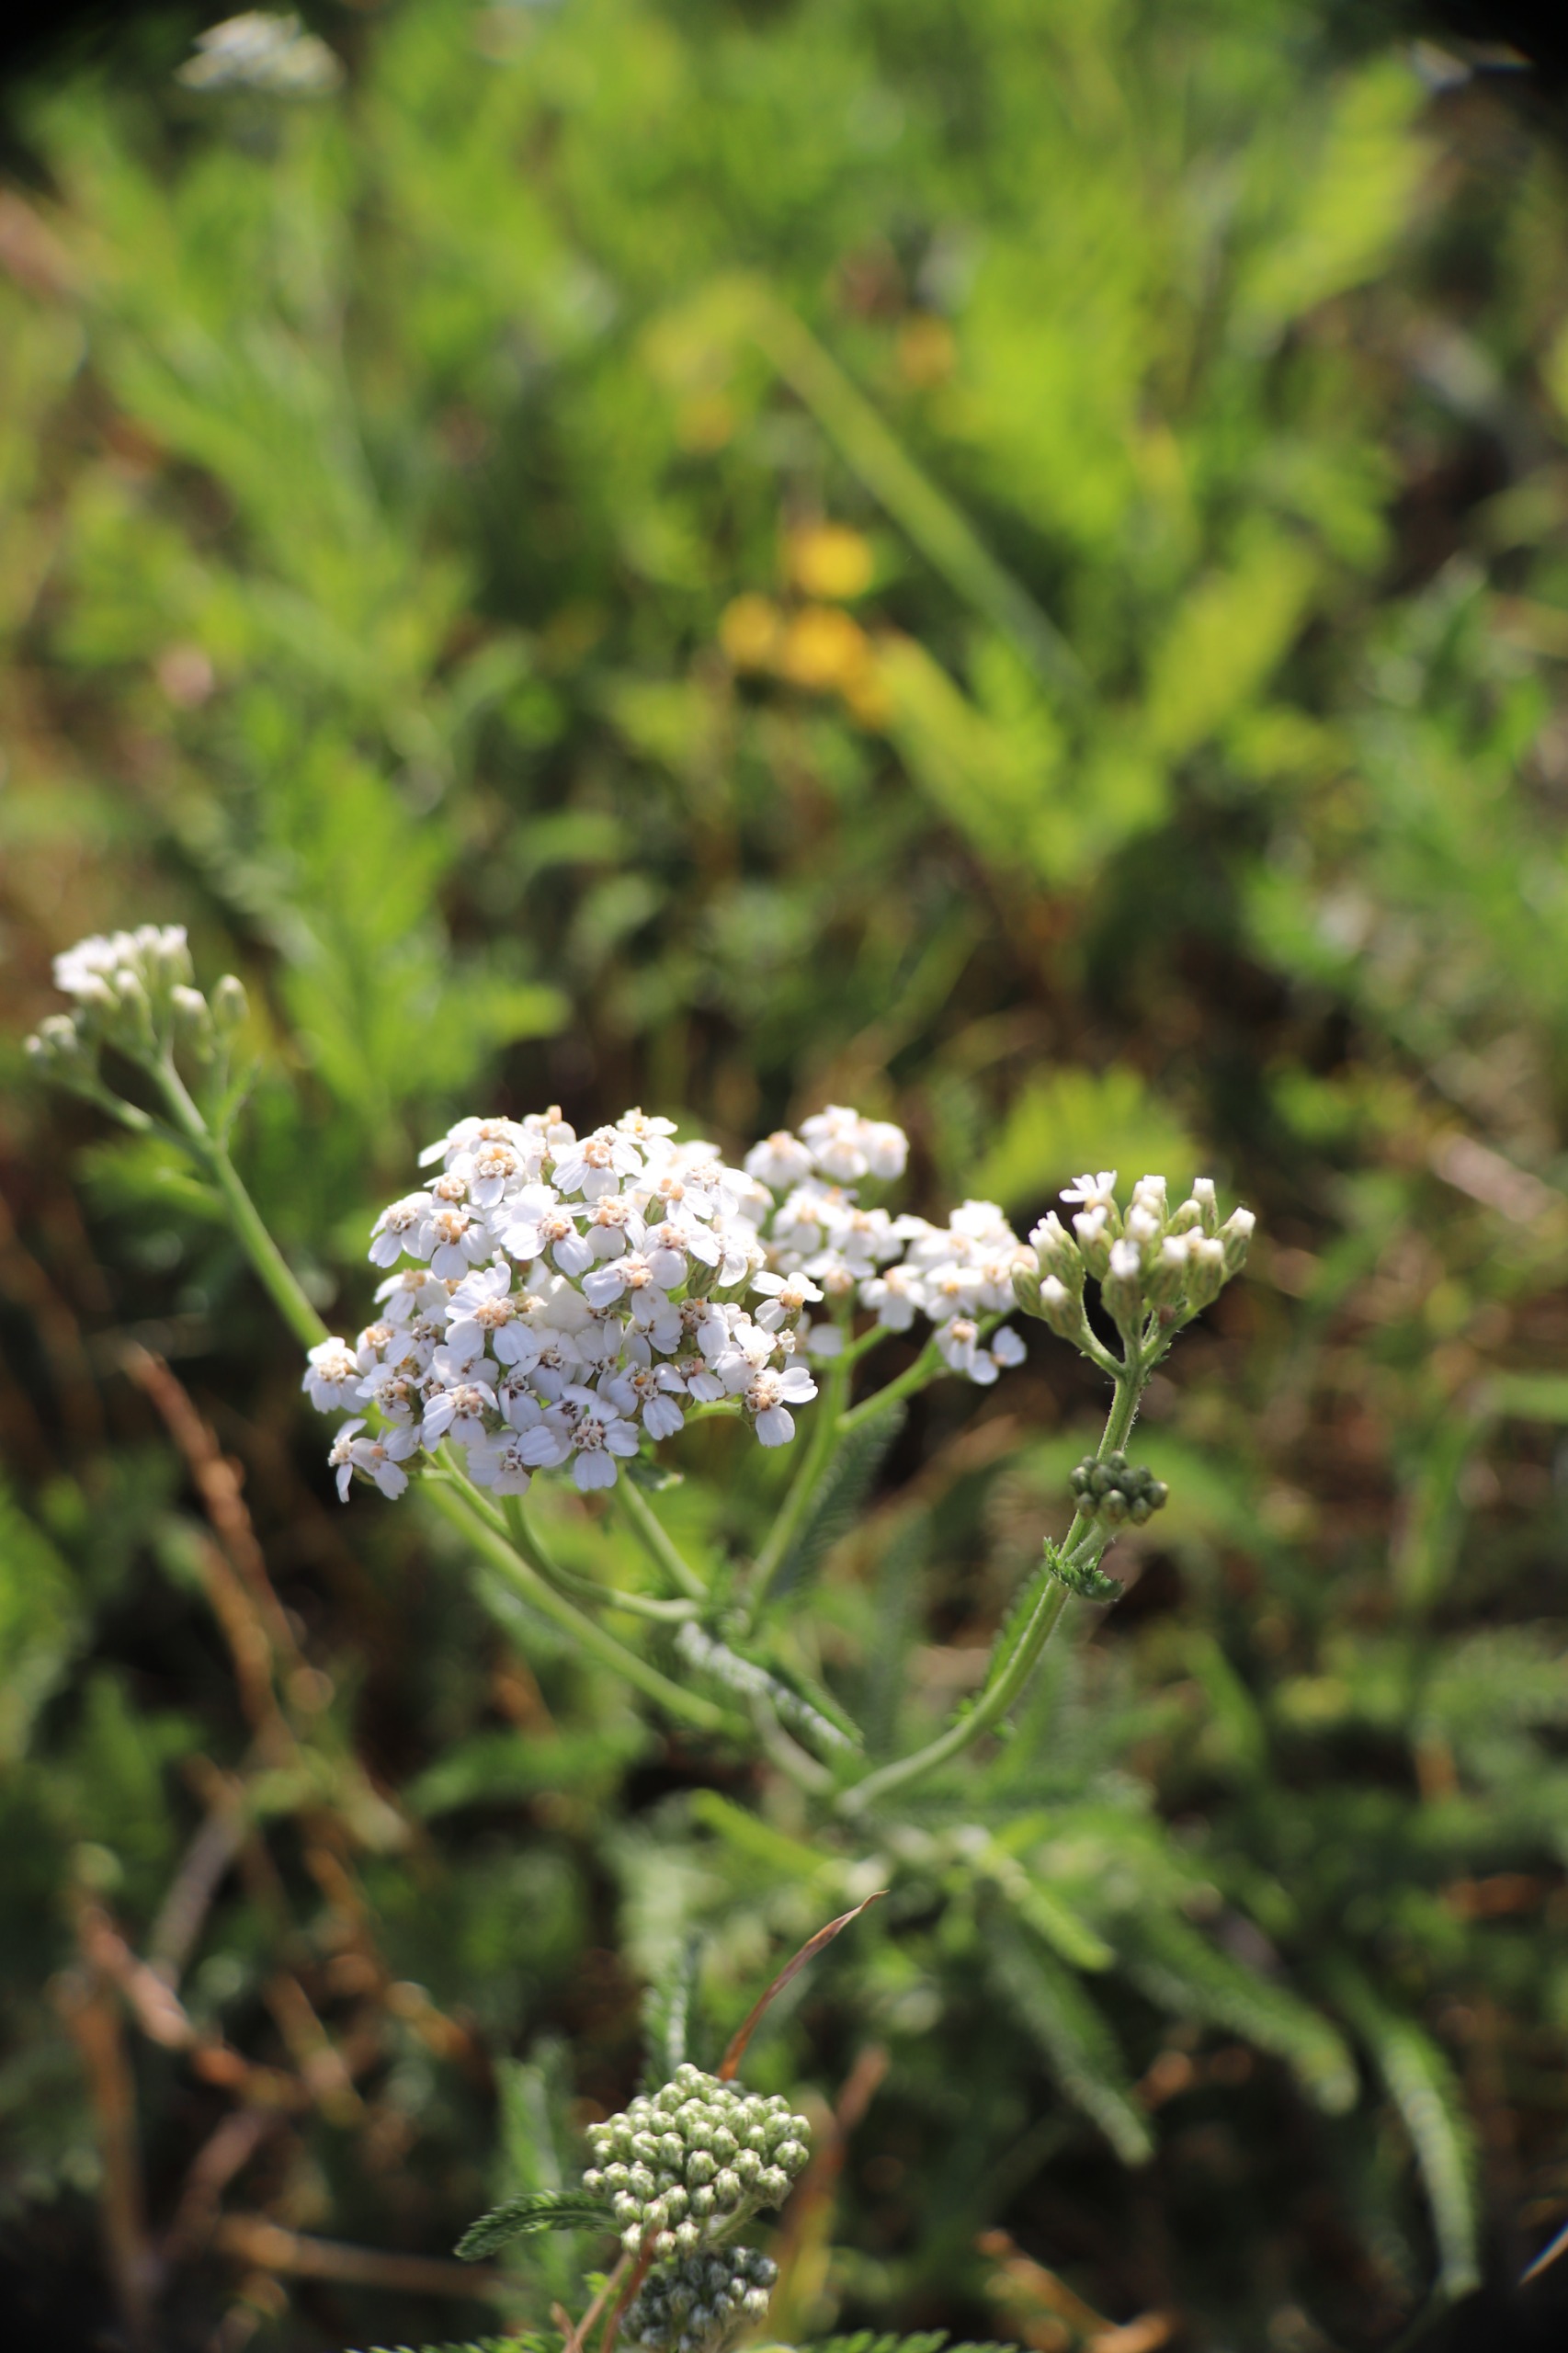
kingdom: Plantae
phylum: Tracheophyta
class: Magnoliopsida
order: Asterales
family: Asteraceae
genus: Achillea
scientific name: Achillea millefolium
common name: Almindelig røllike
